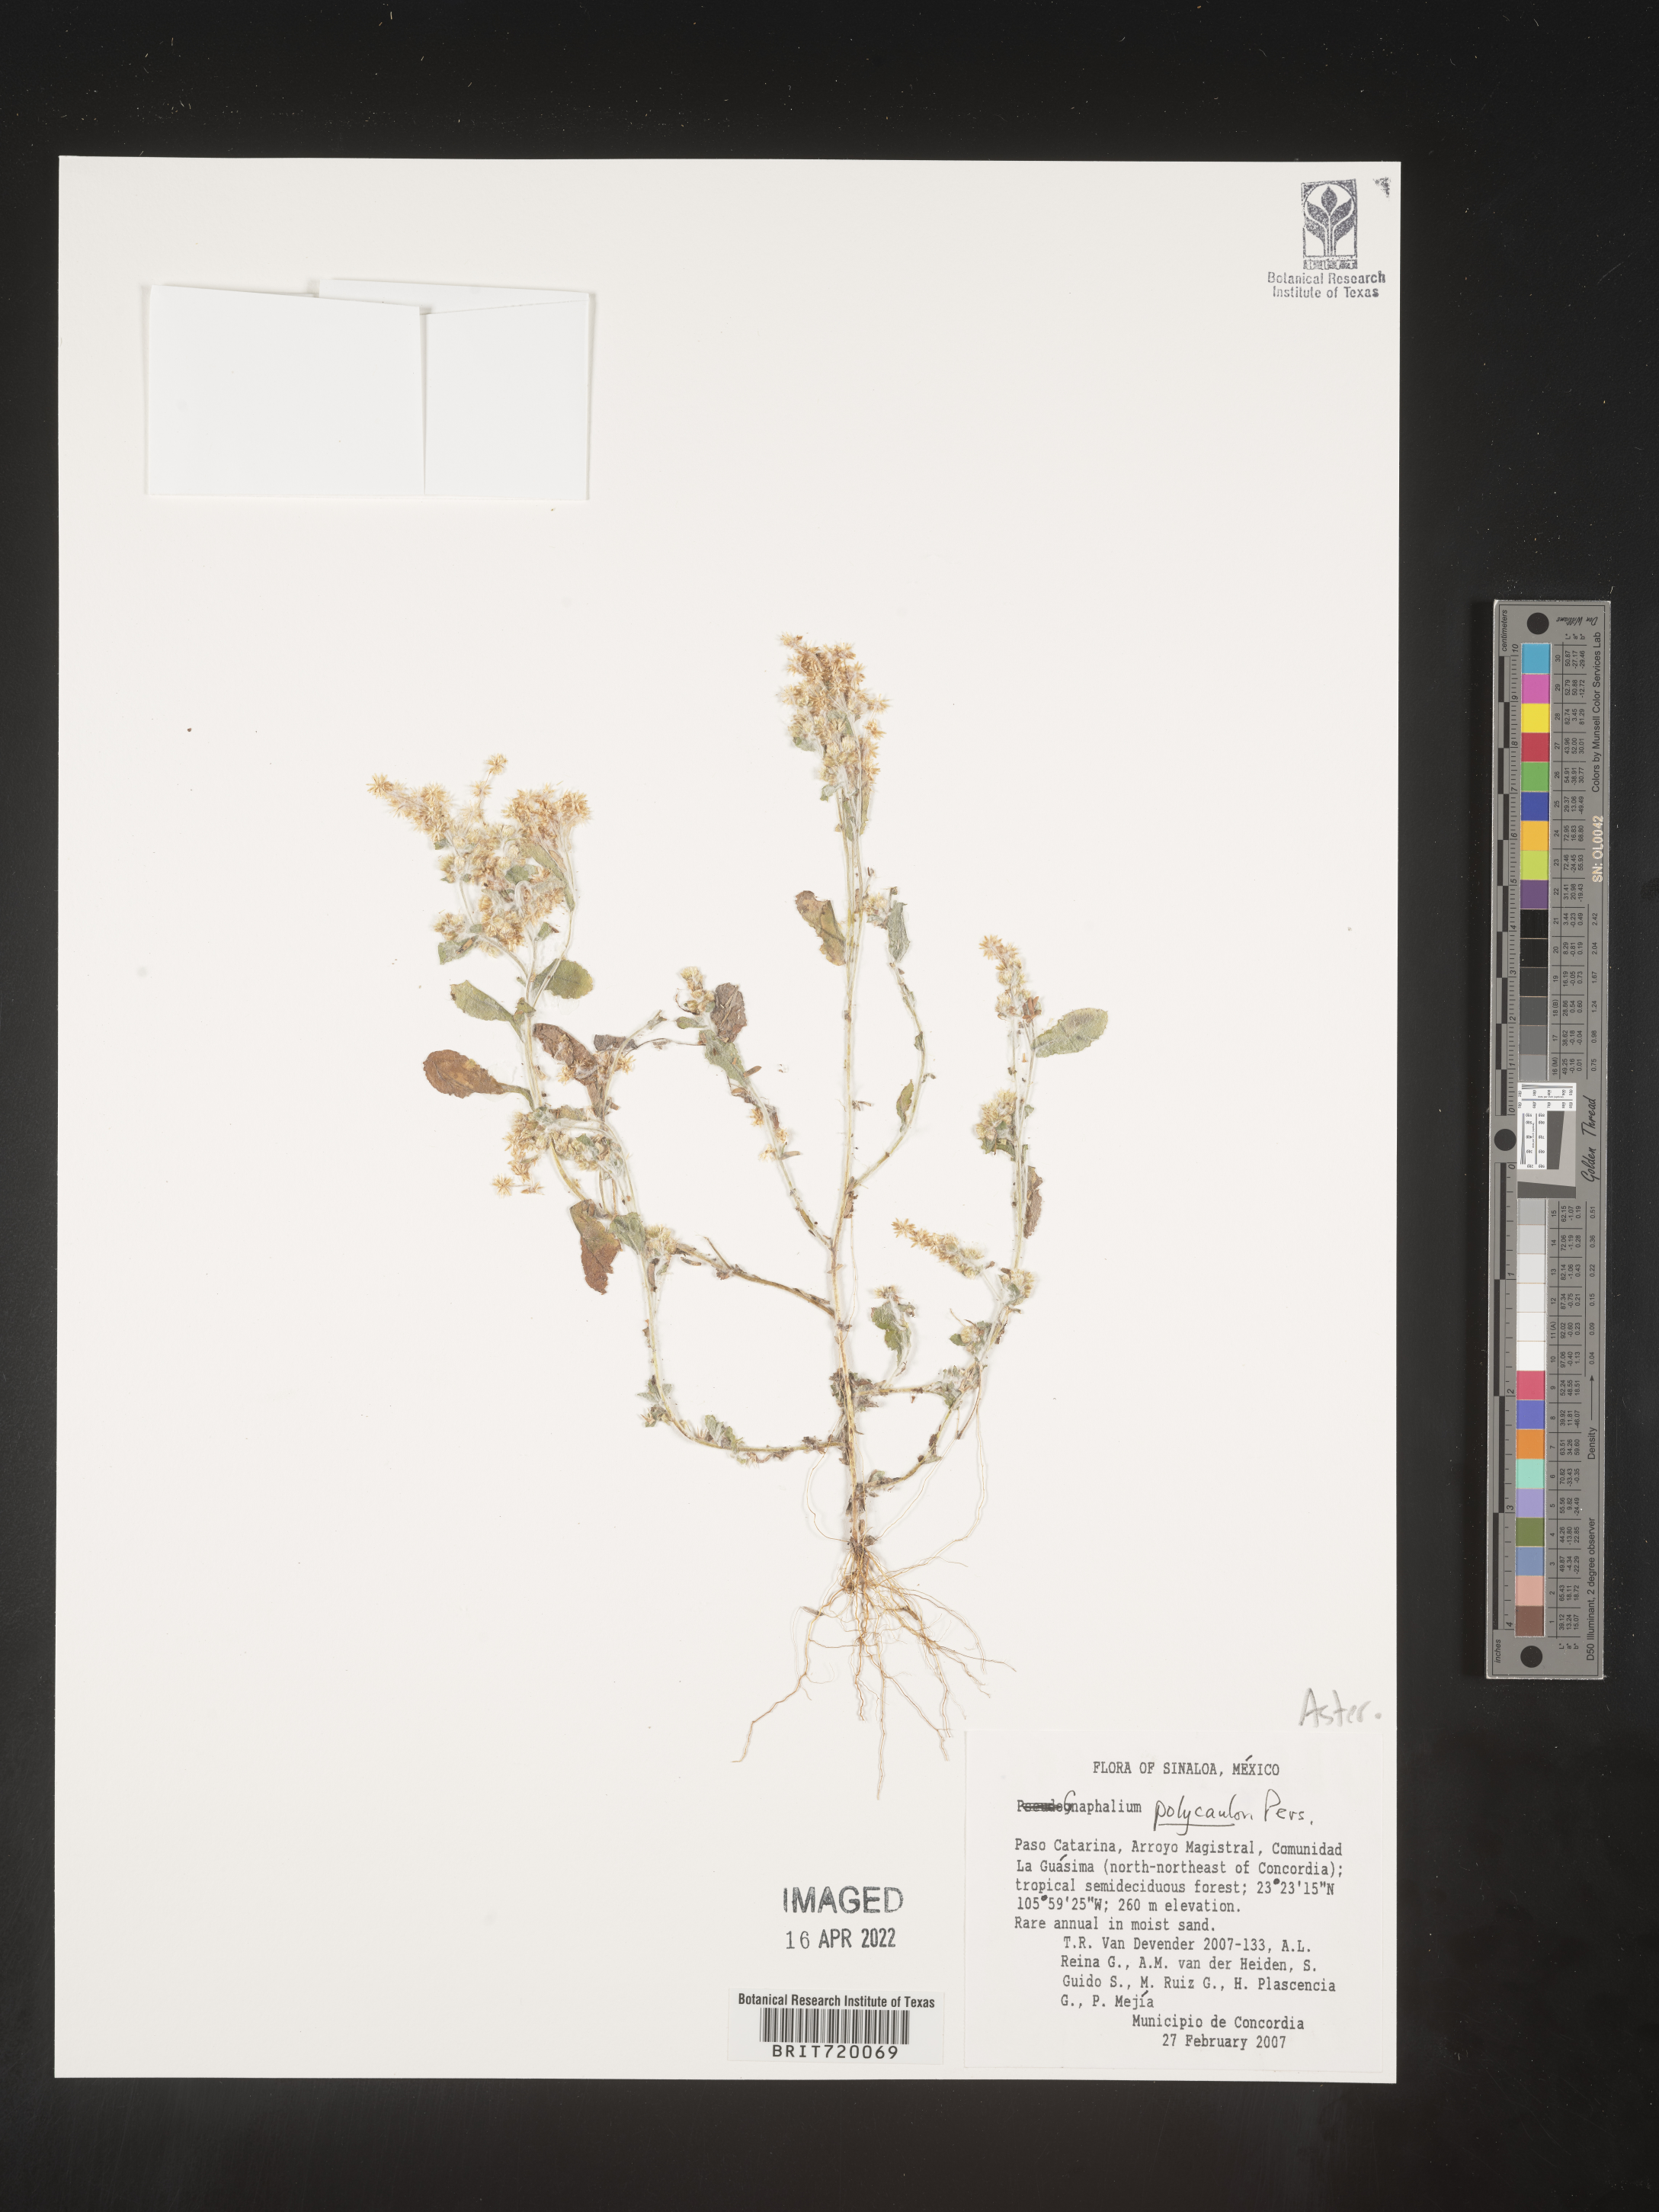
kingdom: Plantae
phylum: Tracheophyta
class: Magnoliopsida
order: Asterales
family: Asteraceae
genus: Gnaphalium
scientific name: Gnaphalium
